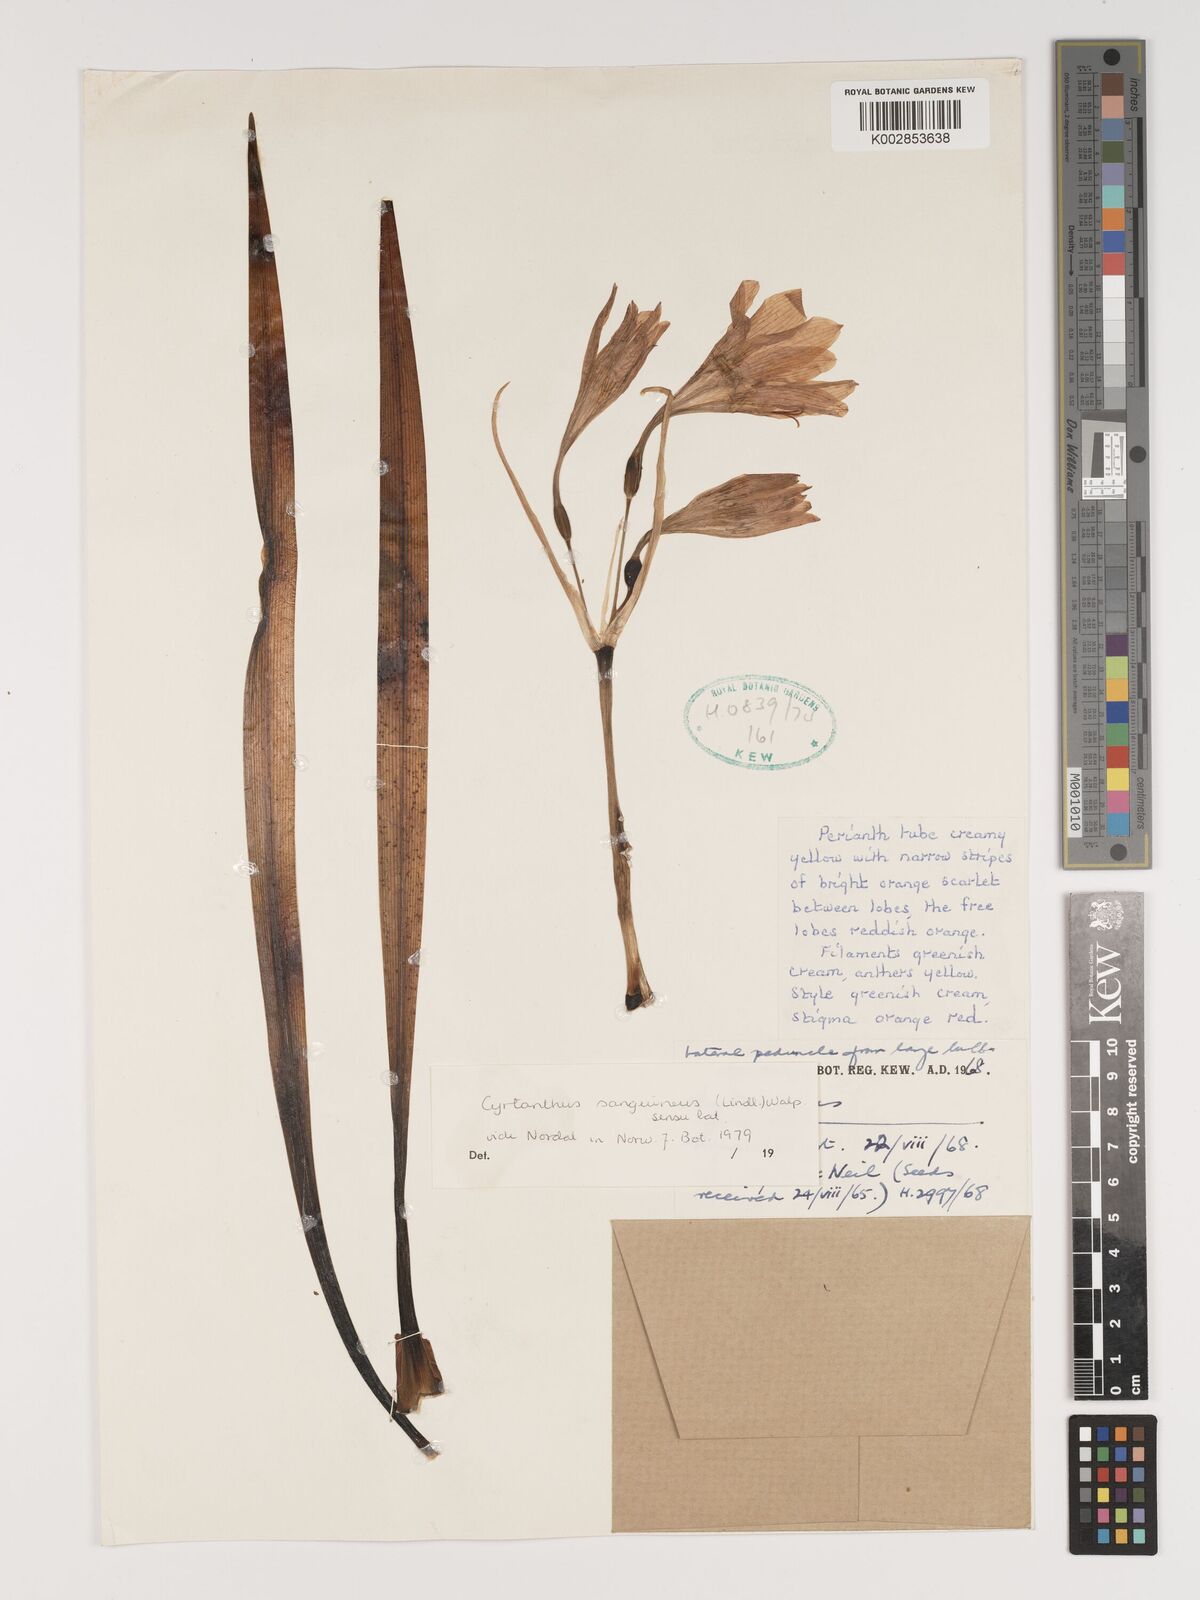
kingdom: Plantae
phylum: Tracheophyta
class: Liliopsida
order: Asparagales
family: Amaryllidaceae
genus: Cyrtanthus
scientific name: Cyrtanthus sanguineus
